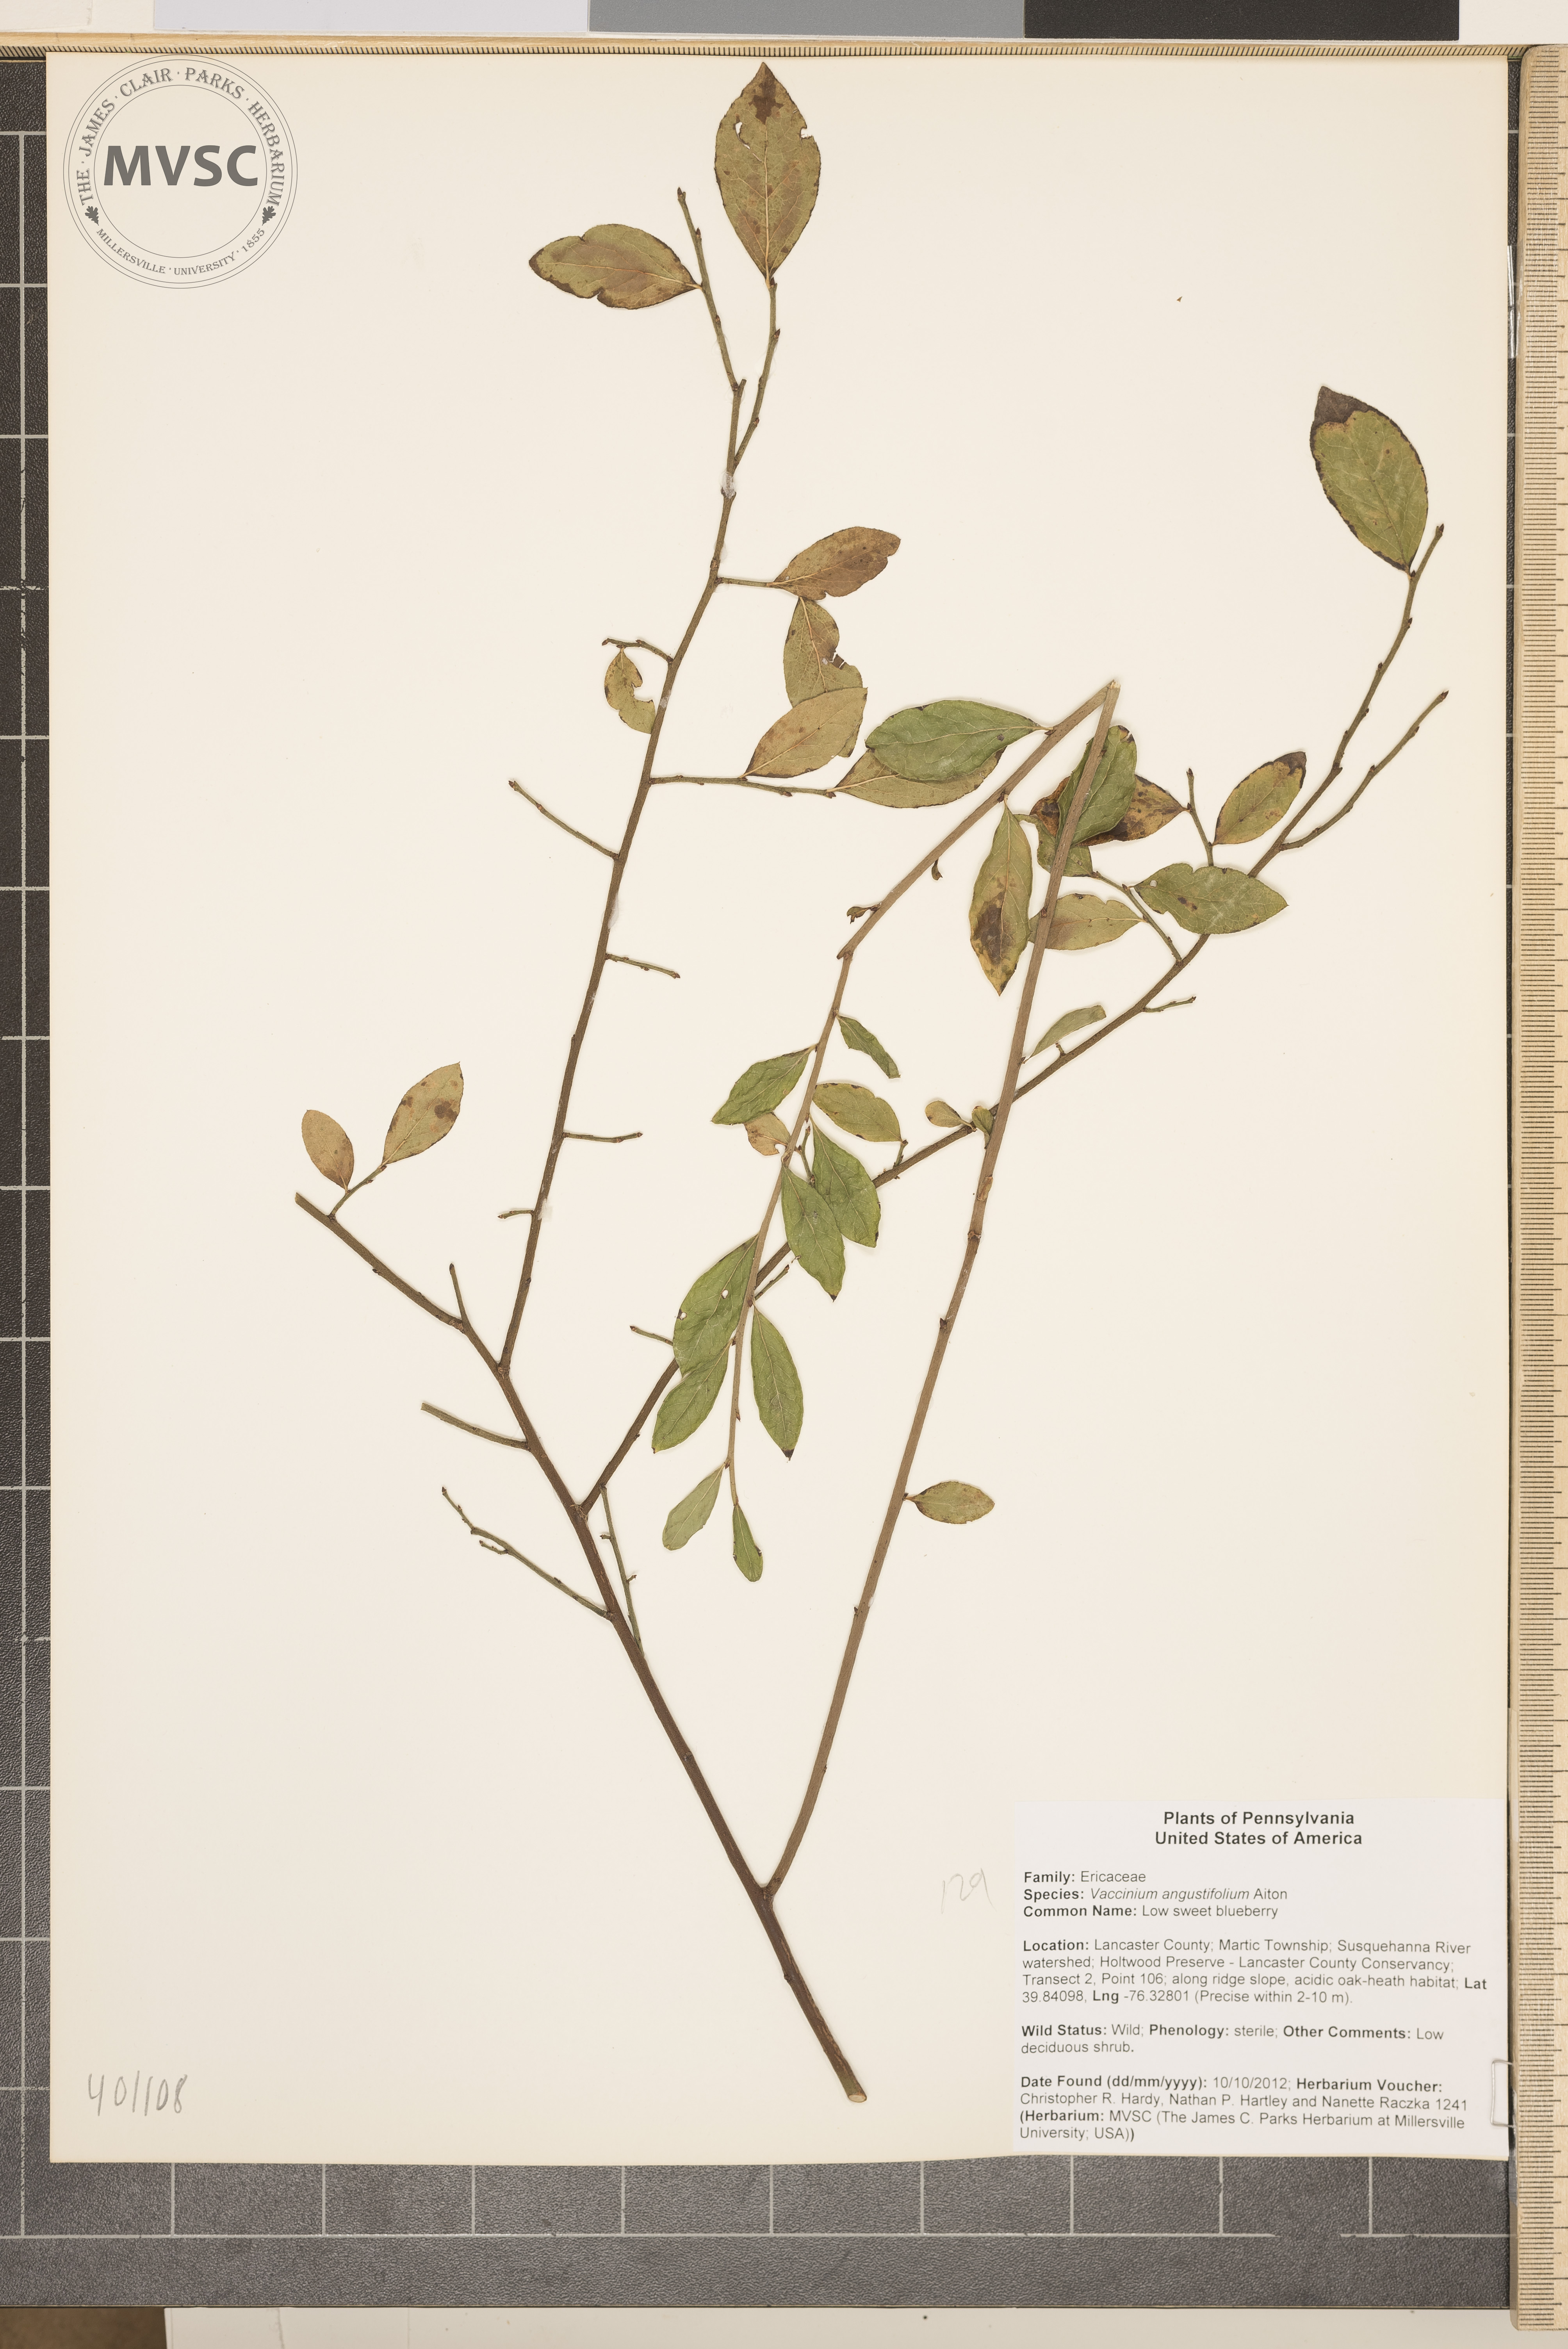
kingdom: Plantae
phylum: Tracheophyta
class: Magnoliopsida
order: Ericales
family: Ericaceae
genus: Vaccinium
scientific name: Vaccinium angustifolium
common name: Low sweet blueberry
